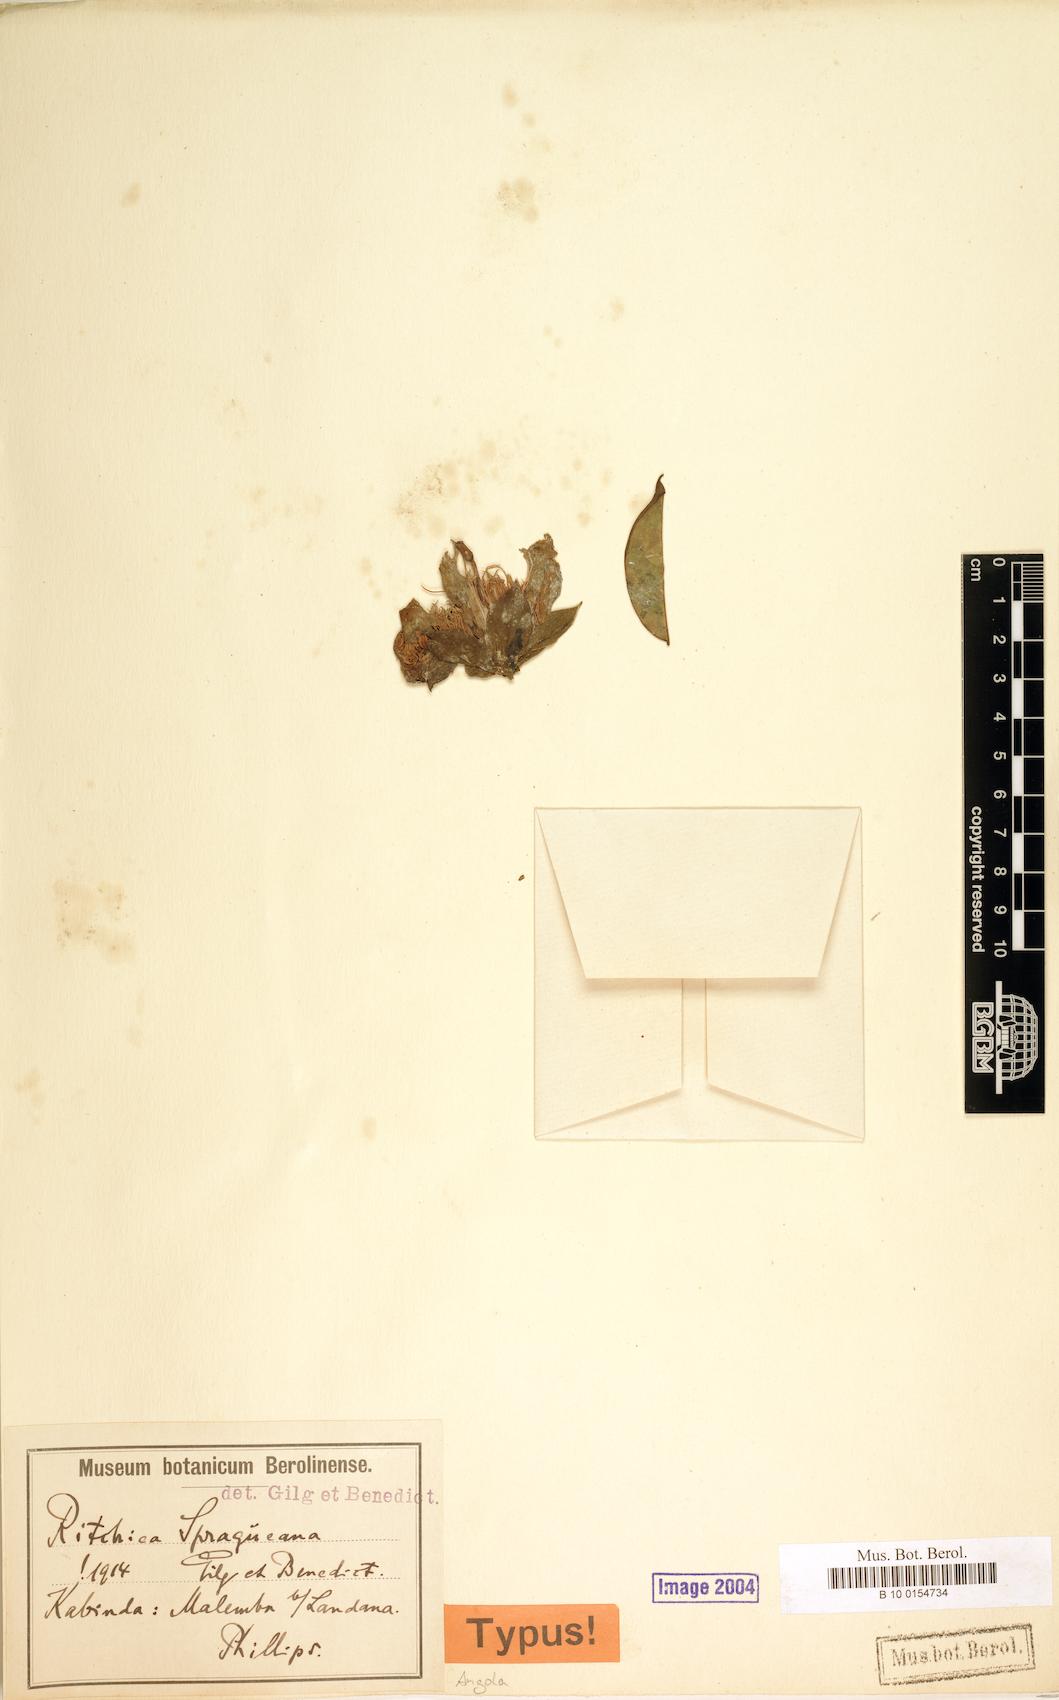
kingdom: Plantae
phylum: Tracheophyta
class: Magnoliopsida
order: Brassicales
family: Capparaceae
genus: Ritchiea
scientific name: Ritchiea spragueana
